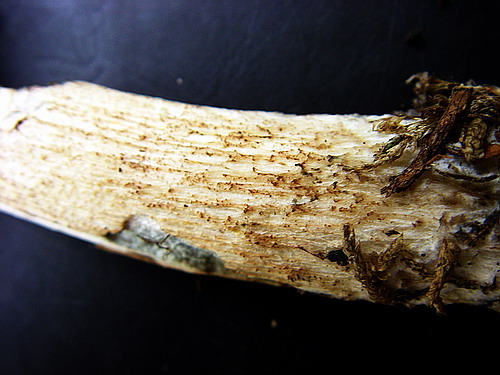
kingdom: Fungi
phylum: Basidiomycota
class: Agaricomycetes
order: Boletales
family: Boletaceae
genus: Leccinum
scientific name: Leccinum aurantiacum
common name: rustrød skælrørhat
